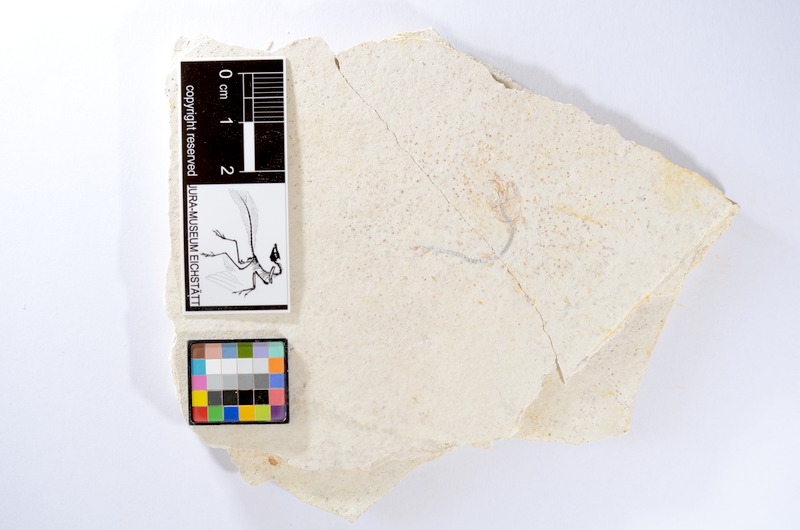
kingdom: Animalia
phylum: Chordata
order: Salmoniformes
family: Orthogonikleithridae
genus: Orthogonikleithrus
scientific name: Orthogonikleithrus hoelli
